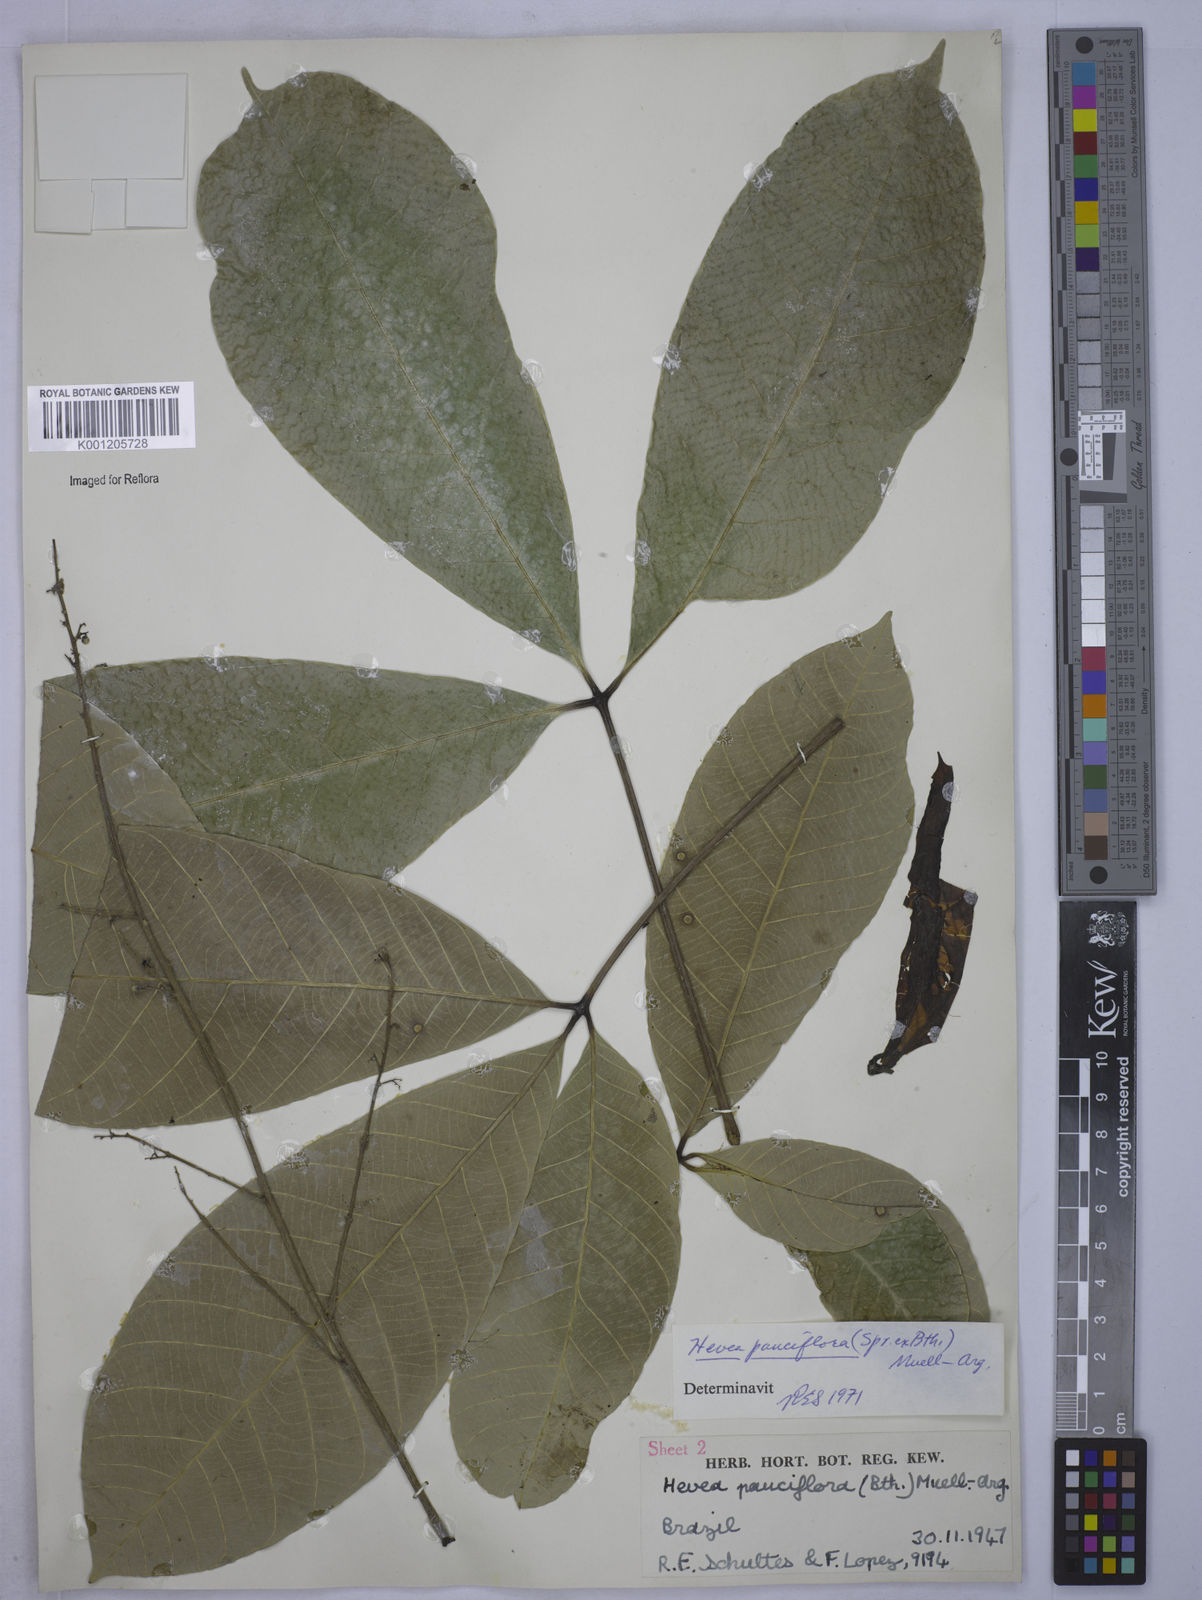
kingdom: Plantae
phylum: Tracheophyta
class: Magnoliopsida
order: Malpighiales
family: Euphorbiaceae
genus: Hevea
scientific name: Hevea
